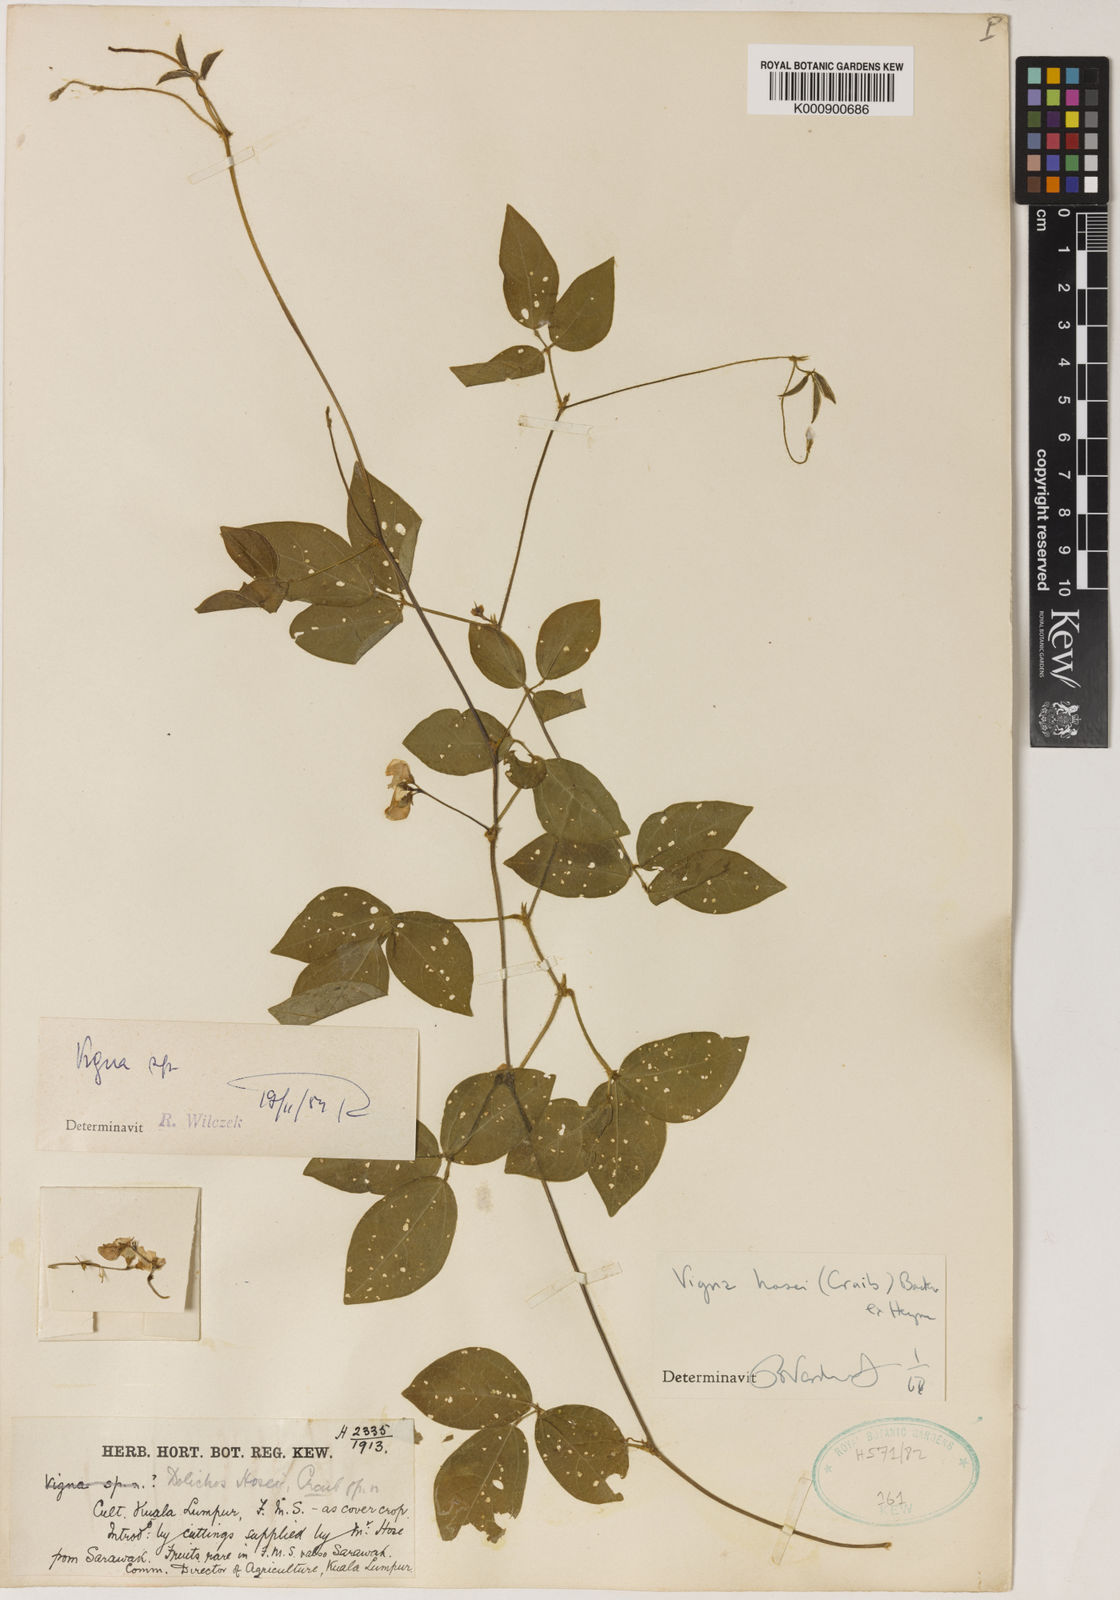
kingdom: Plantae
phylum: Tracheophyta
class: Magnoliopsida
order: Fabales
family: Fabaceae
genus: Vigna
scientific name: Vigna hosei
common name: Sarawak-bean
